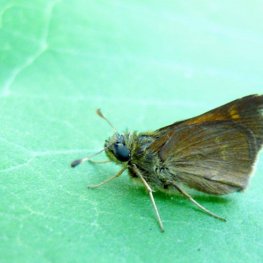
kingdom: Animalia
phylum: Arthropoda
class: Insecta
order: Lepidoptera
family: Hesperiidae
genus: Polites
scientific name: Polites themistocles
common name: Tawny-edged Skipper
